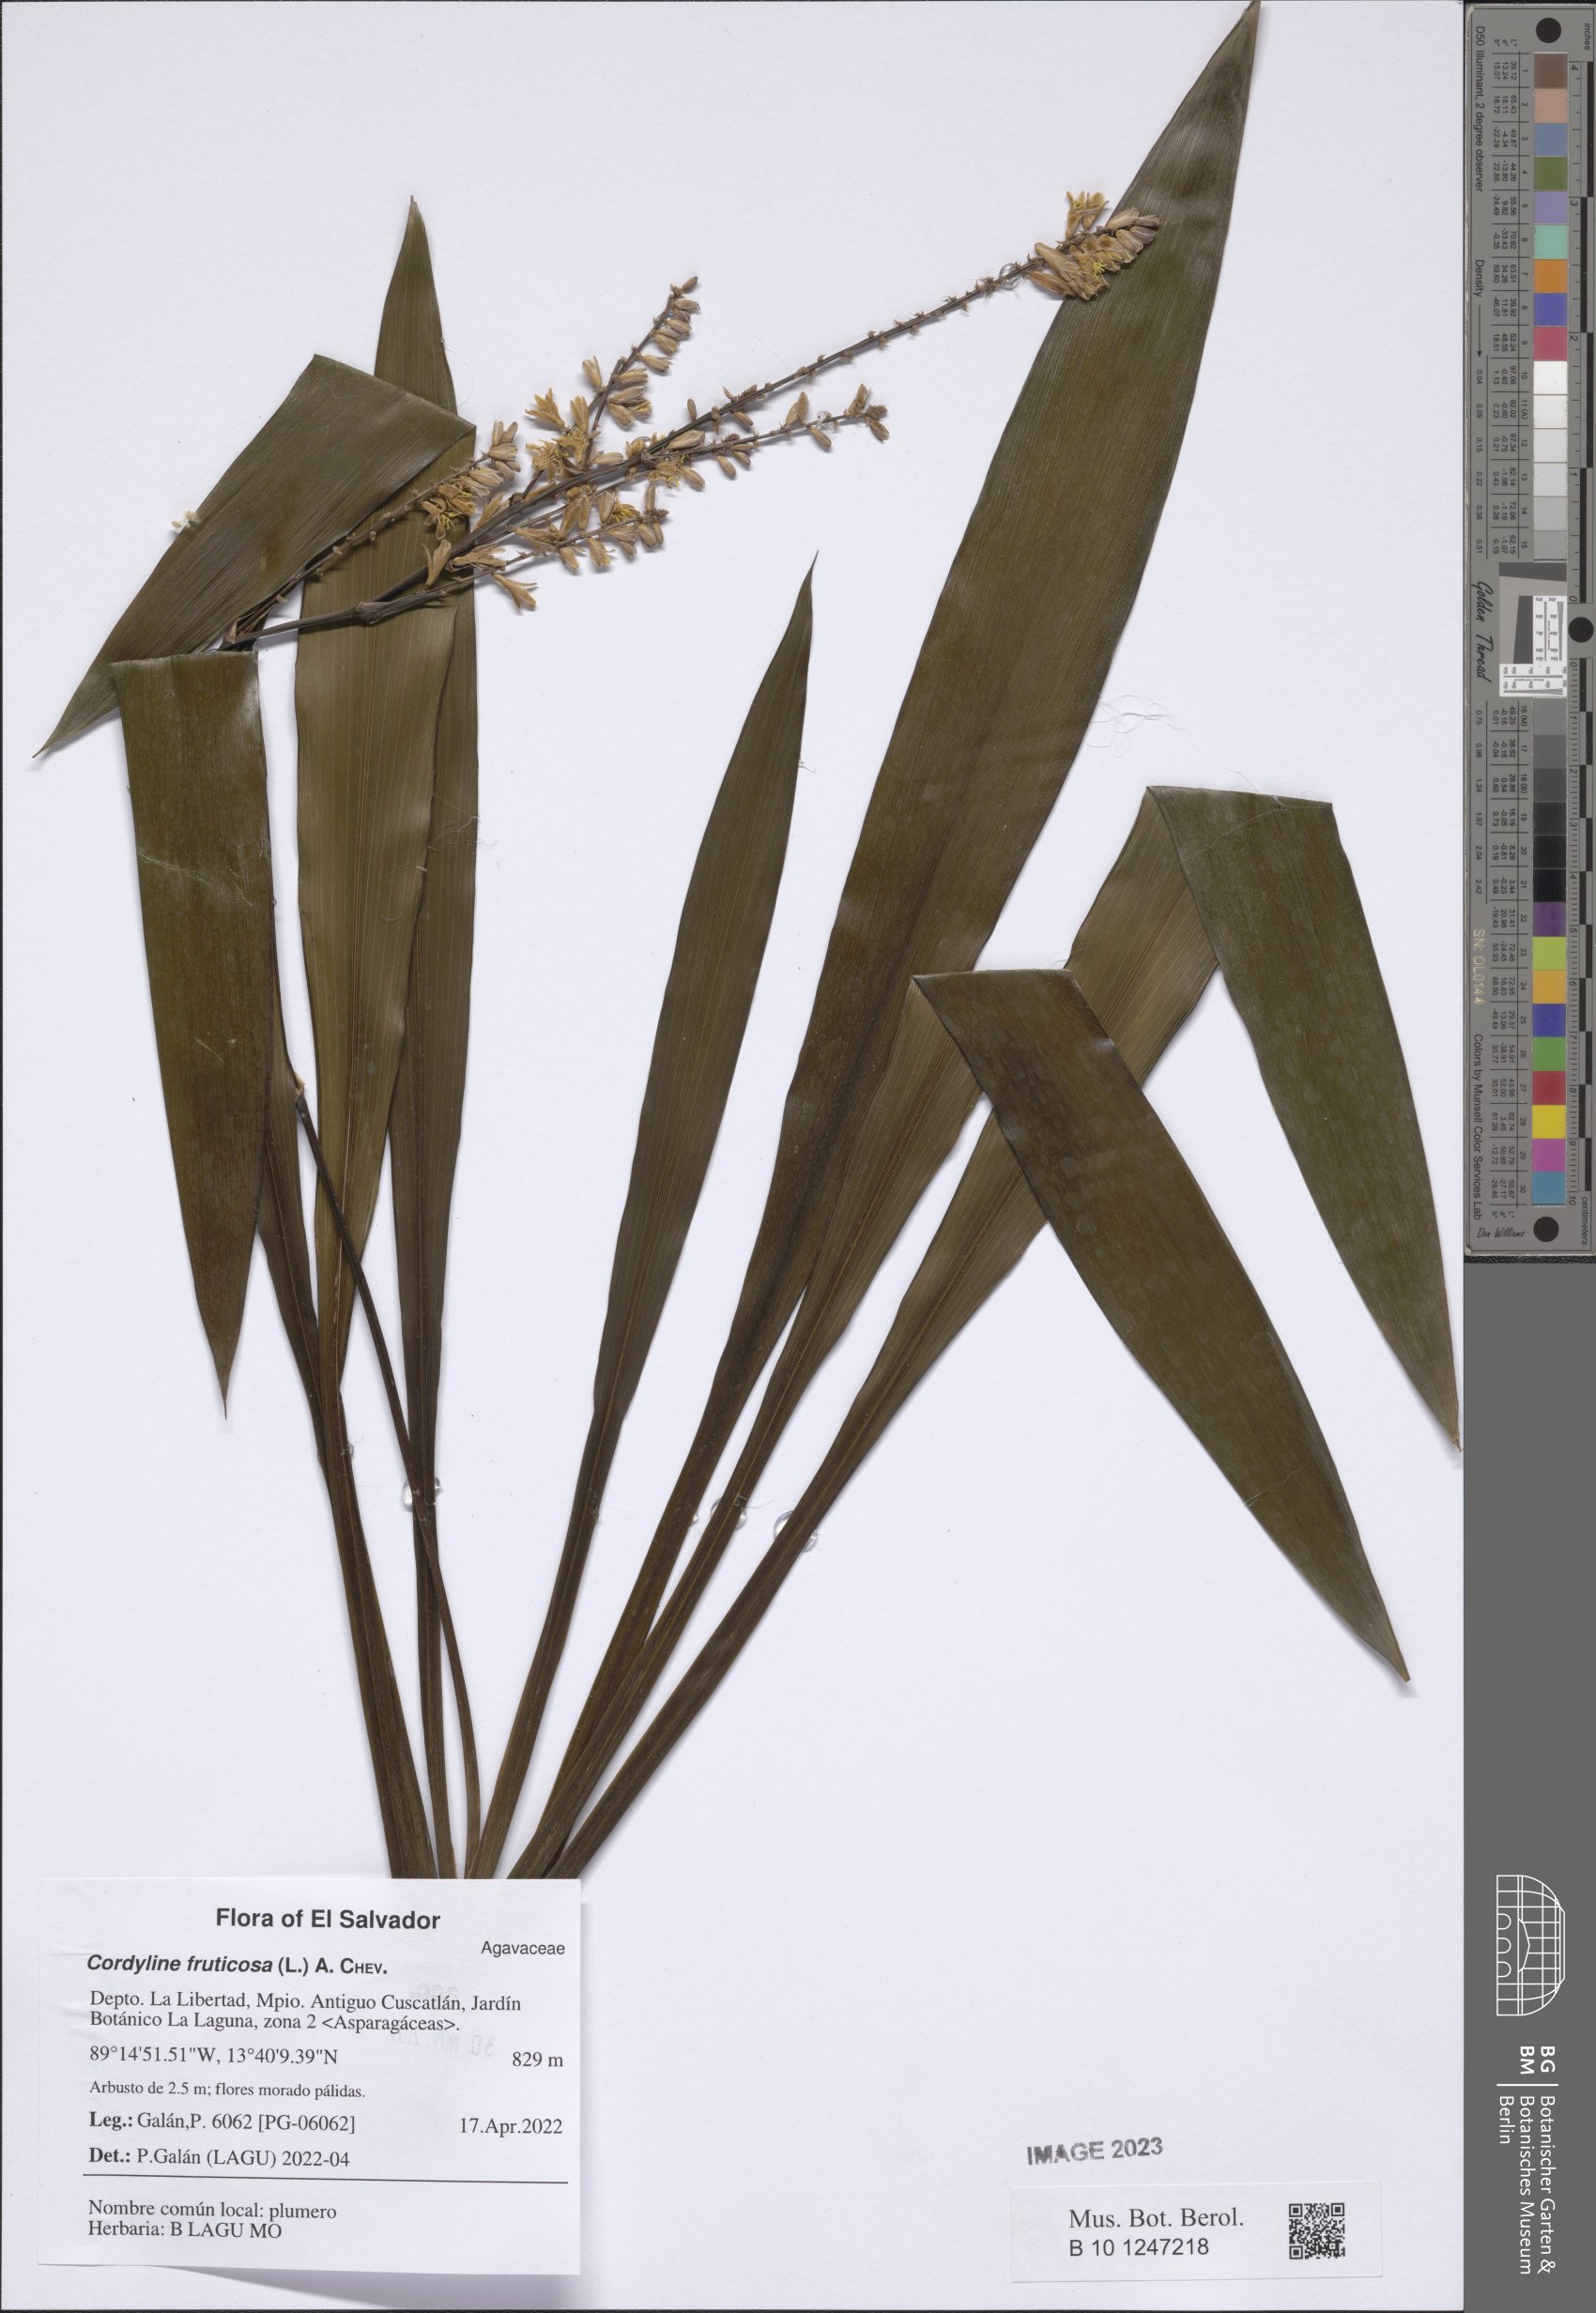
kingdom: Plantae
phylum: Tracheophyta
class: Liliopsida
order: Asparagales
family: Asparagaceae
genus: Cordyline
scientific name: Cordyline fruticosa
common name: Good-luck-plant
